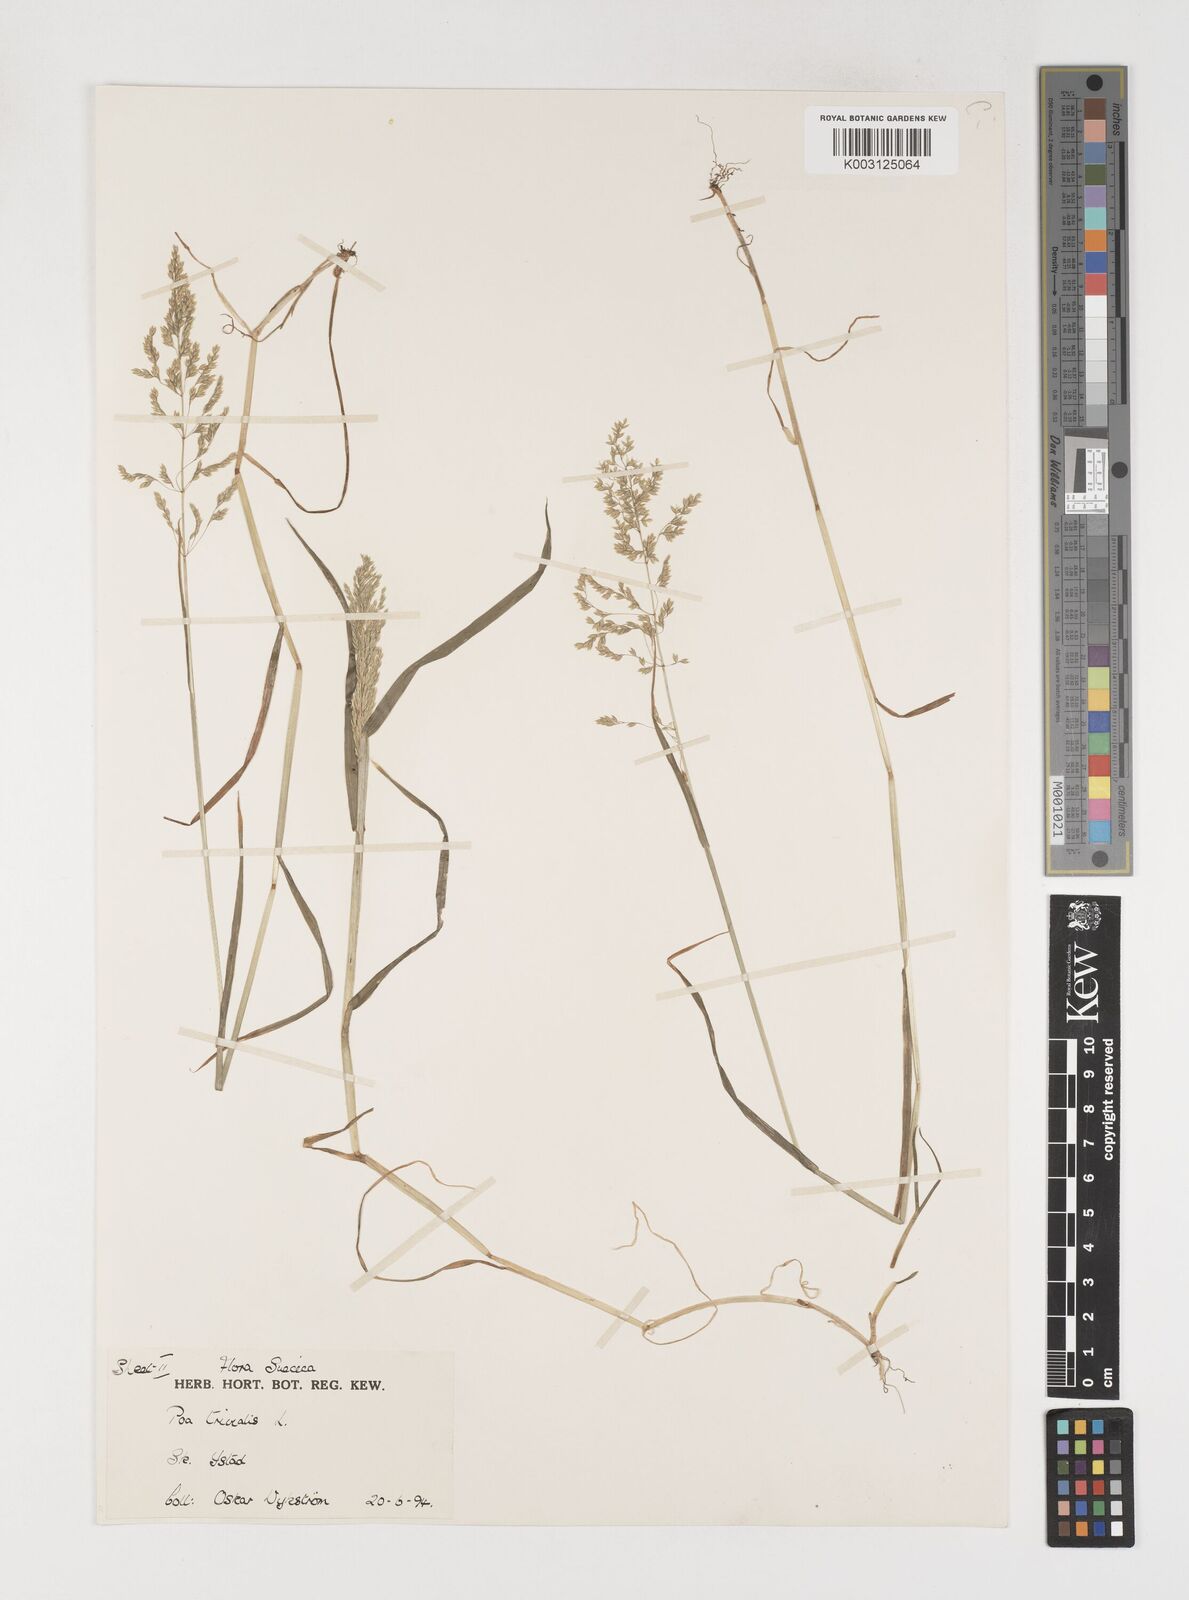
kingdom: Plantae
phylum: Tracheophyta
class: Liliopsida
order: Poales
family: Poaceae
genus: Poa
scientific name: Poa trivialis
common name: Rough bluegrass
